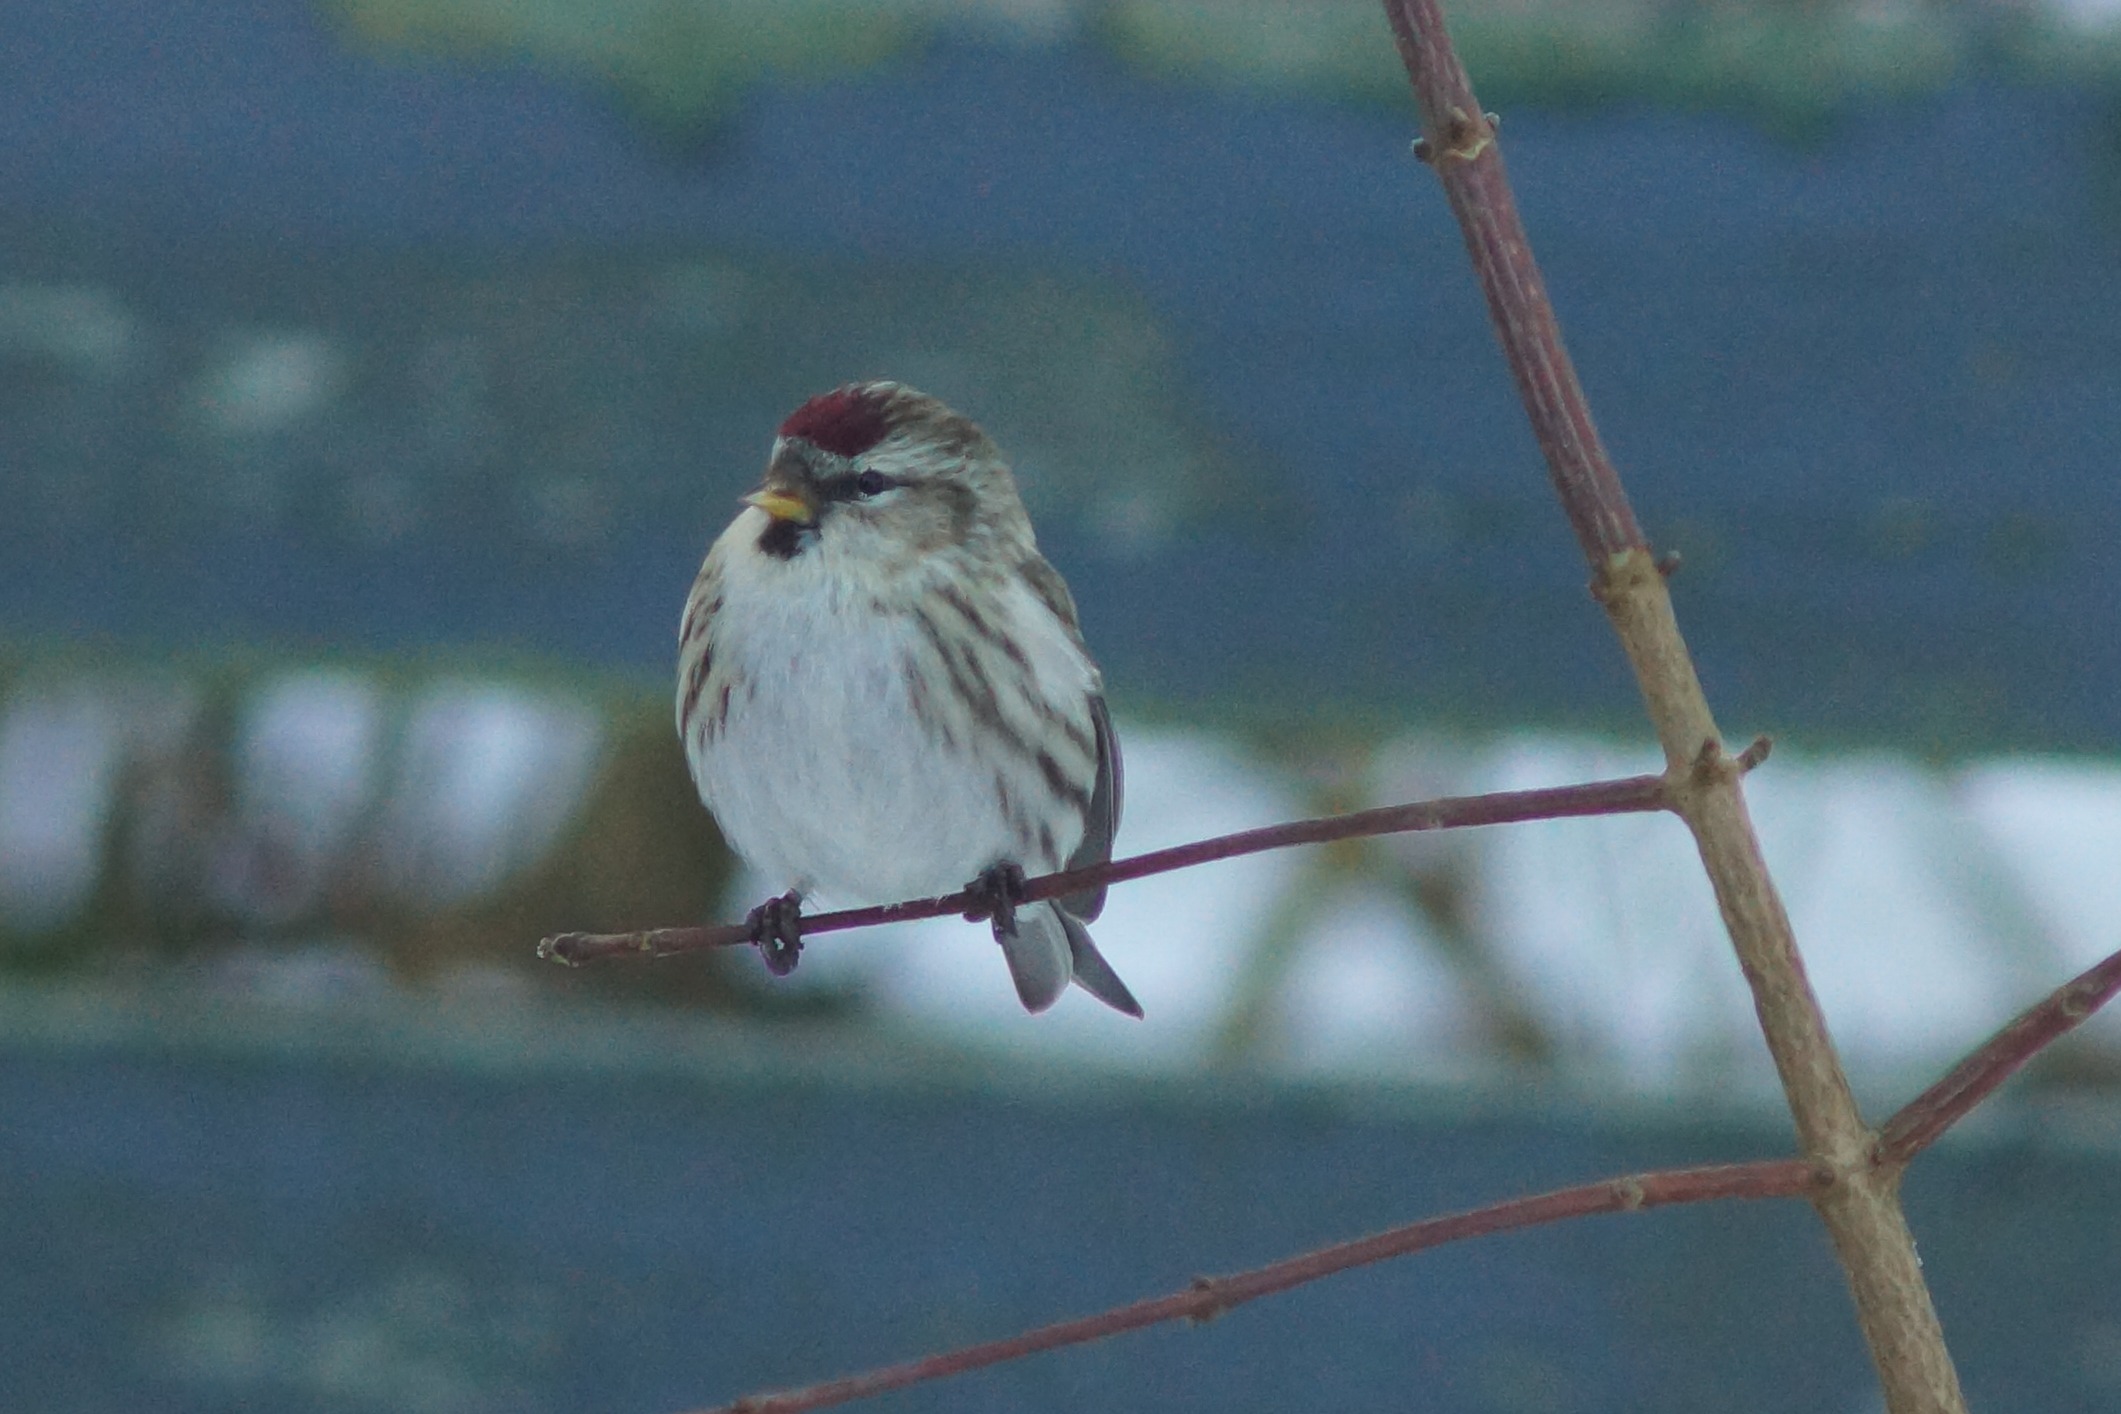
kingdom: Animalia
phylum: Chordata
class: Aves
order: Passeriformes
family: Fringillidae
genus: Acanthis
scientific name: Acanthis flammea
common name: Nordlig gråsisken
